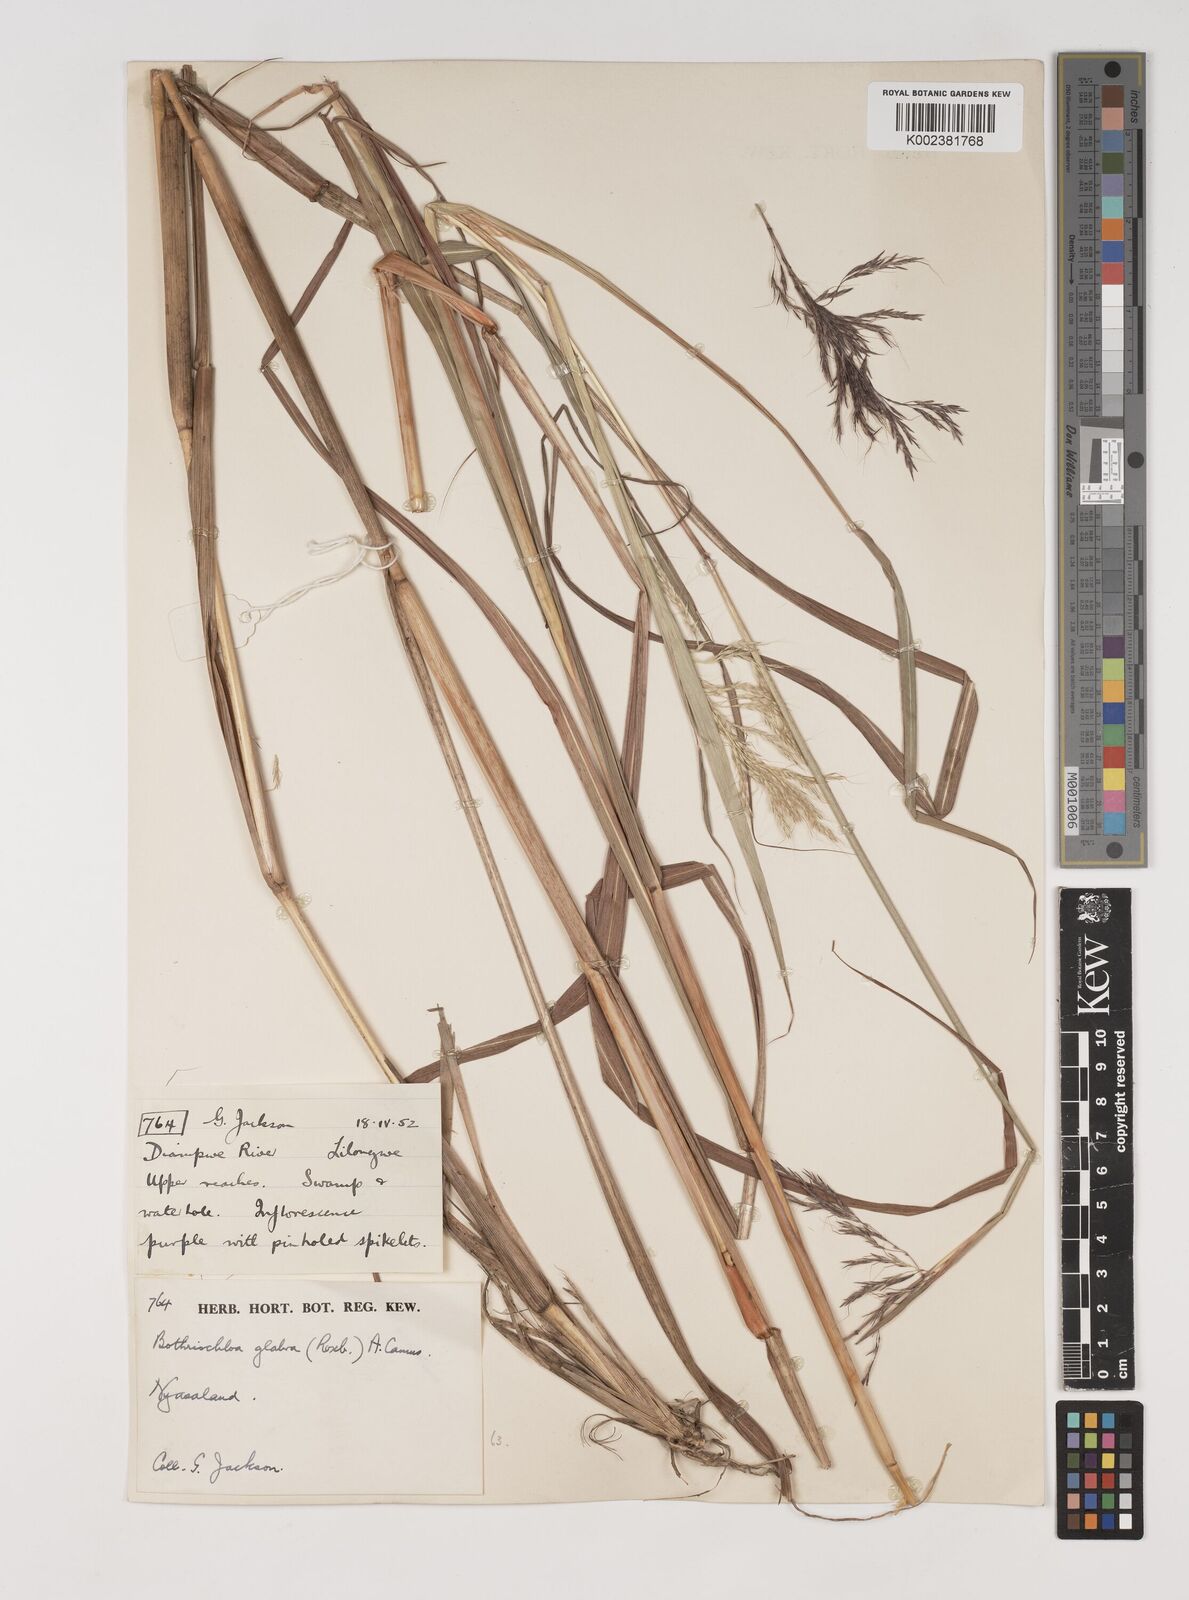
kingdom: Plantae
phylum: Tracheophyta
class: Liliopsida
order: Poales
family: Poaceae
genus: Bothriochloa
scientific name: Bothriochloa bladhii
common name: Caucasian bluestem
